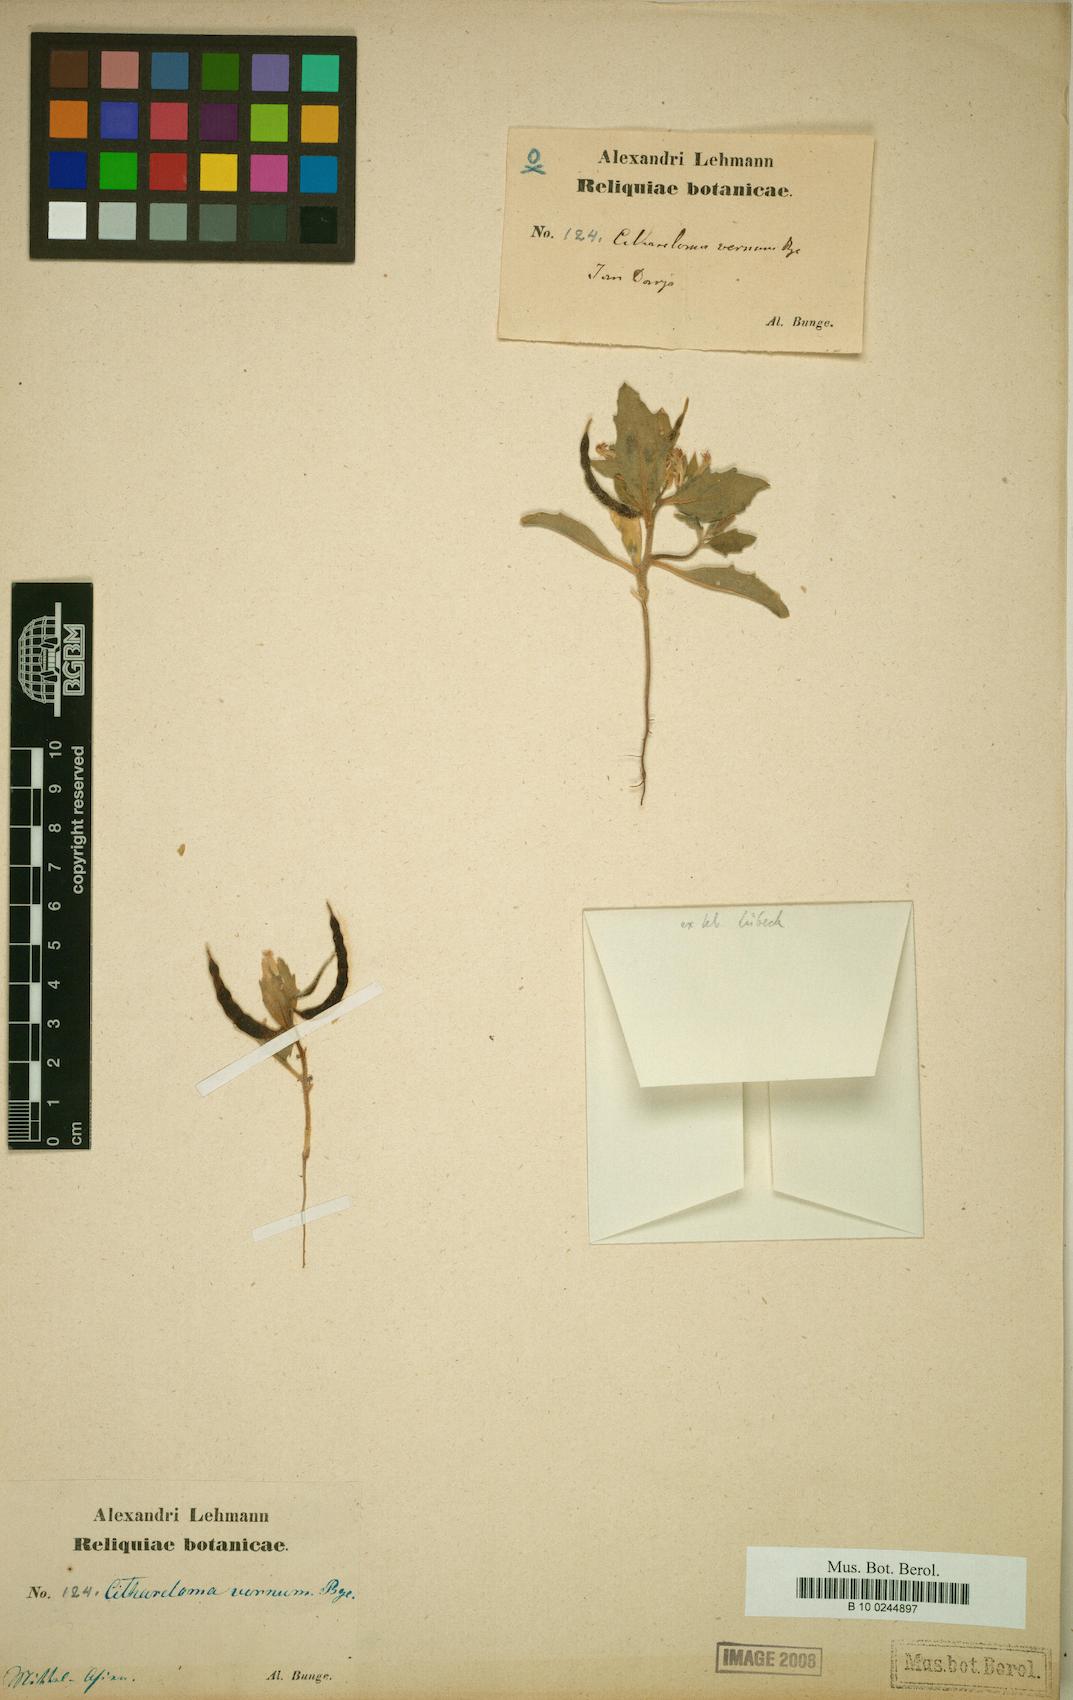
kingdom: Plantae
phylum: Tracheophyta
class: Magnoliopsida
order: Brassicales
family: Brassicaceae
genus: Cithareloma
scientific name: Cithareloma vernum
